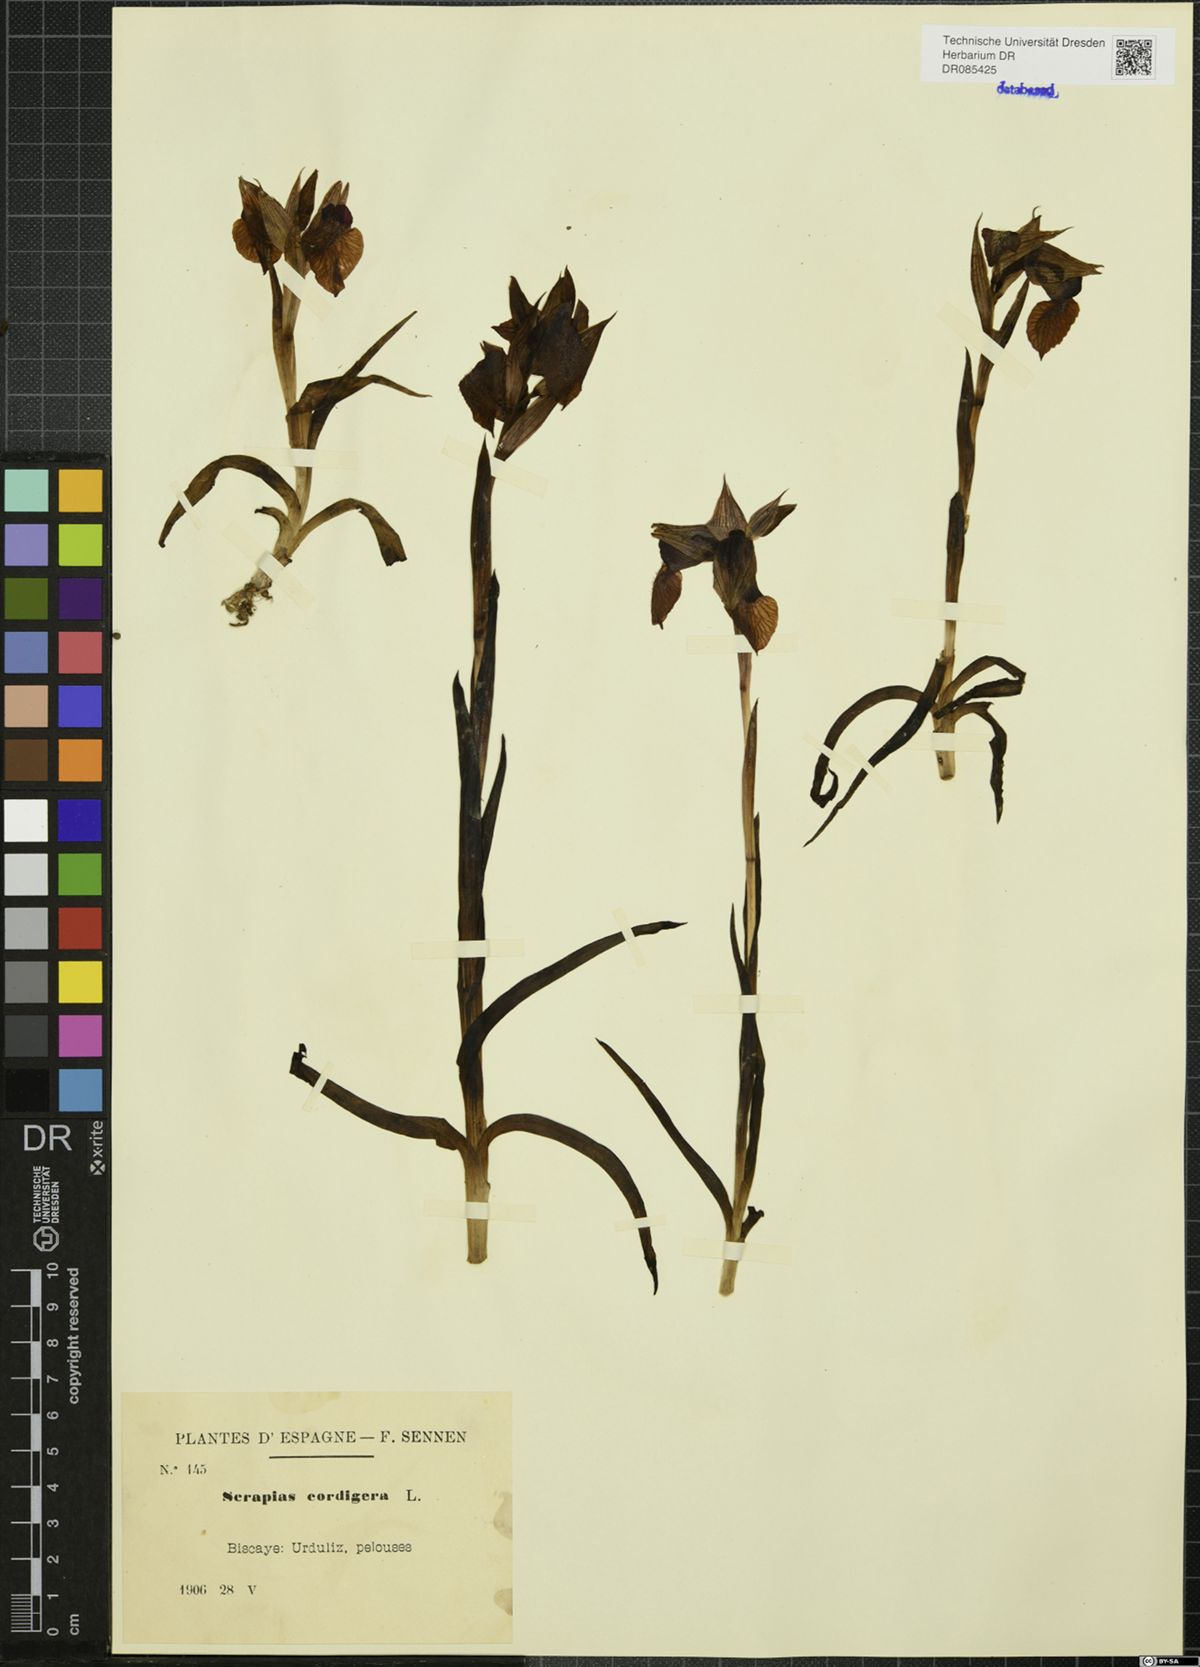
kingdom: Plantae
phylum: Tracheophyta
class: Liliopsida
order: Asparagales
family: Orchidaceae
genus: Serapias
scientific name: Serapias cordigera
